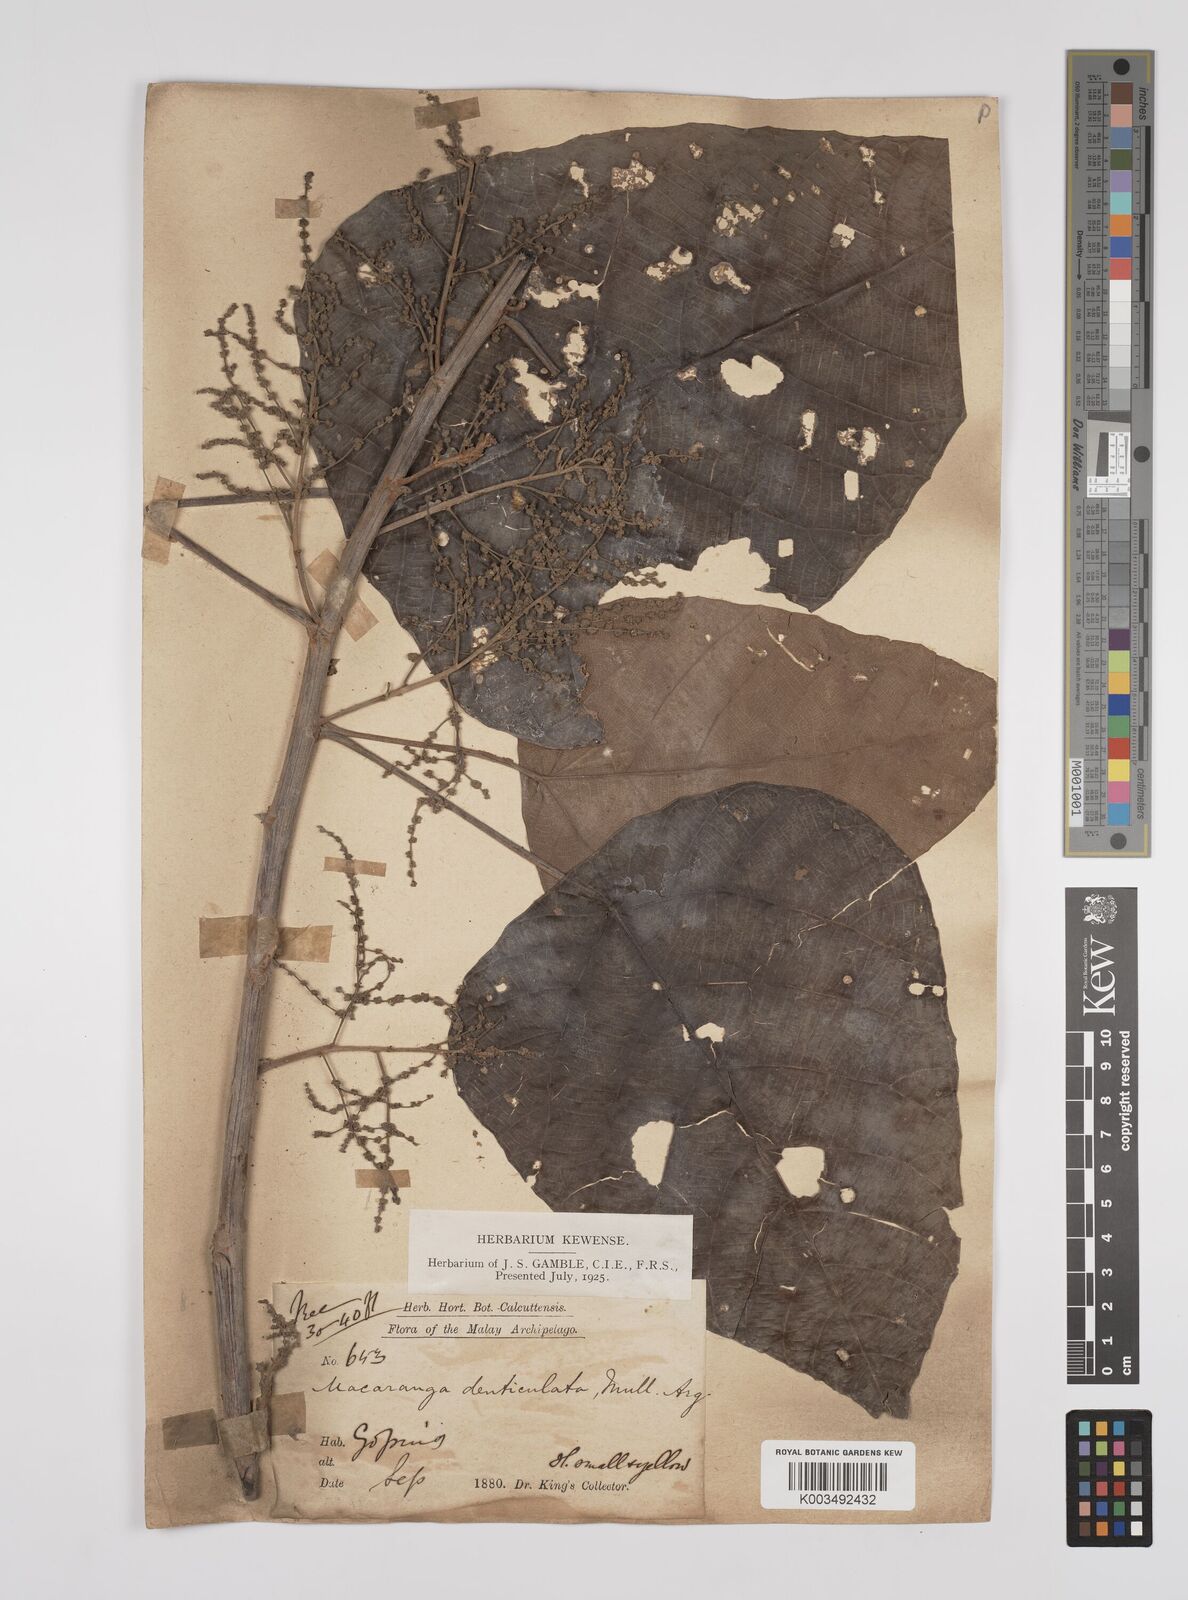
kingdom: Plantae
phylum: Tracheophyta
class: Magnoliopsida
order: Malpighiales
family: Euphorbiaceae
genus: Macaranga
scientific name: Macaranga denticulata
